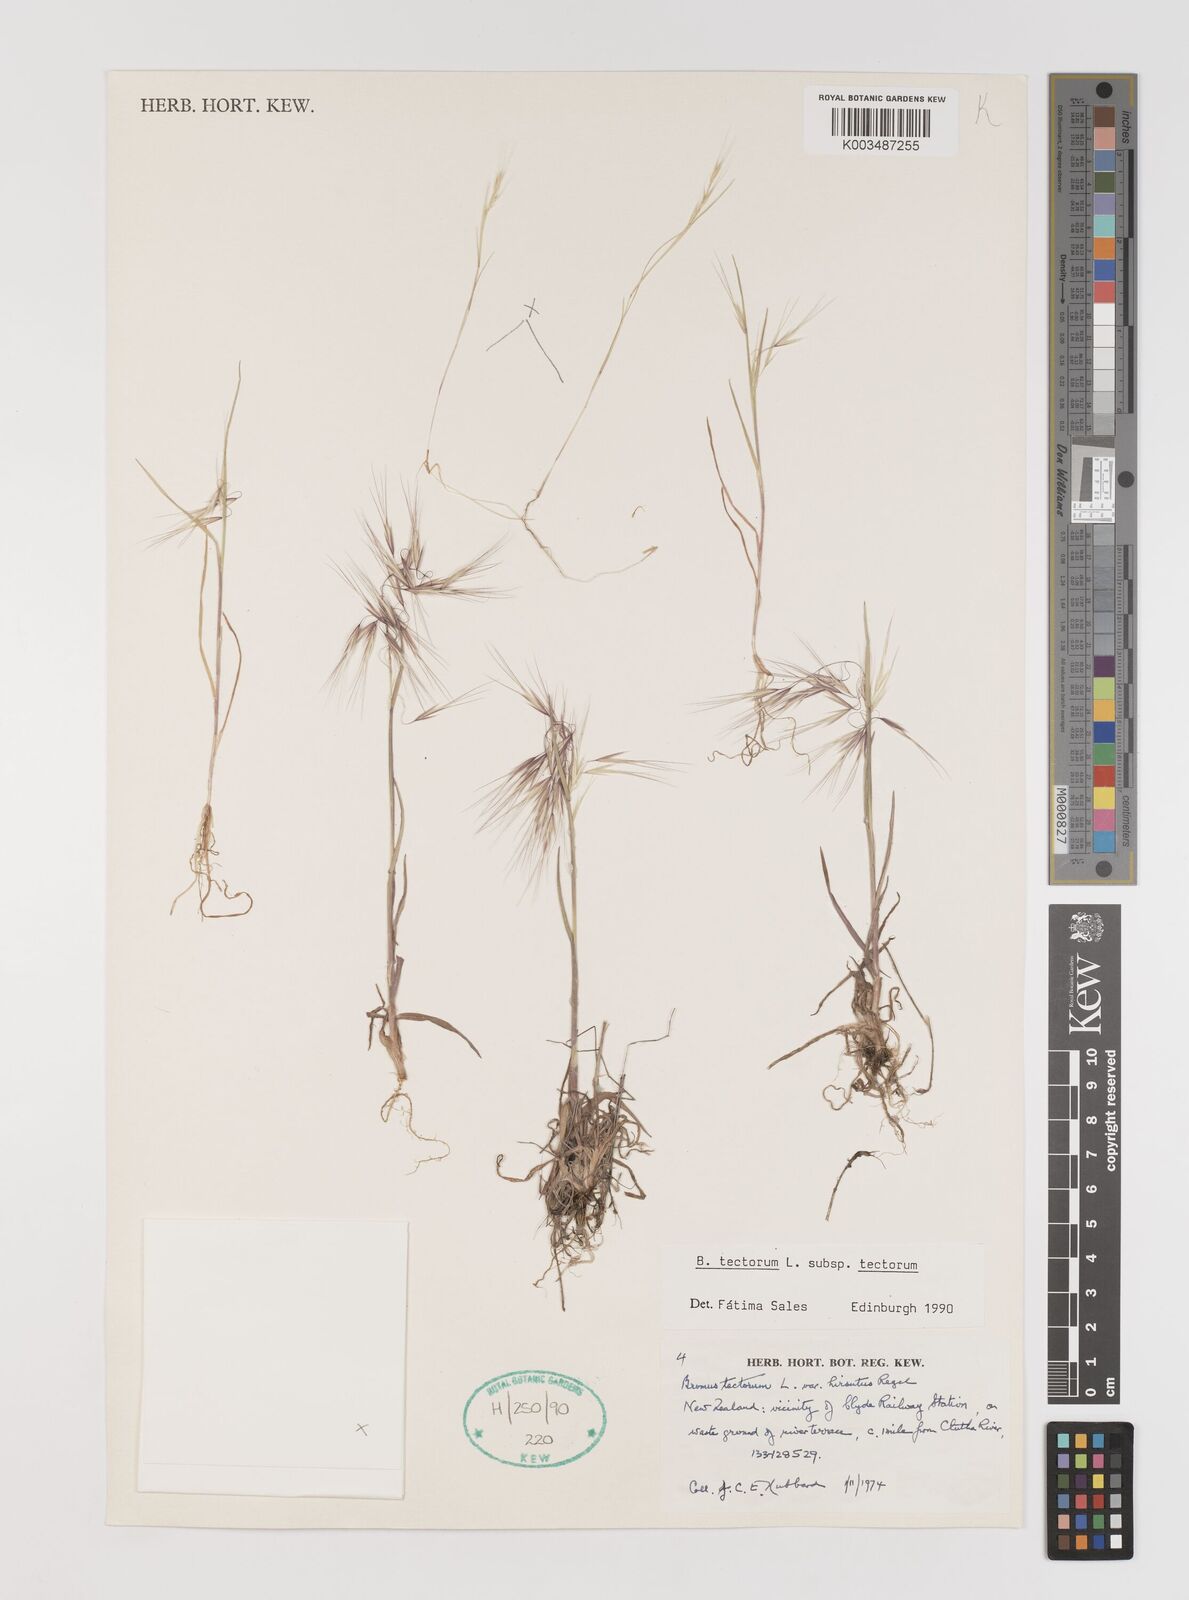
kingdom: Plantae
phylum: Tracheophyta
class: Liliopsida
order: Poales
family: Poaceae
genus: Bromus
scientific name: Bromus tectorum
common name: Cheatgrass
